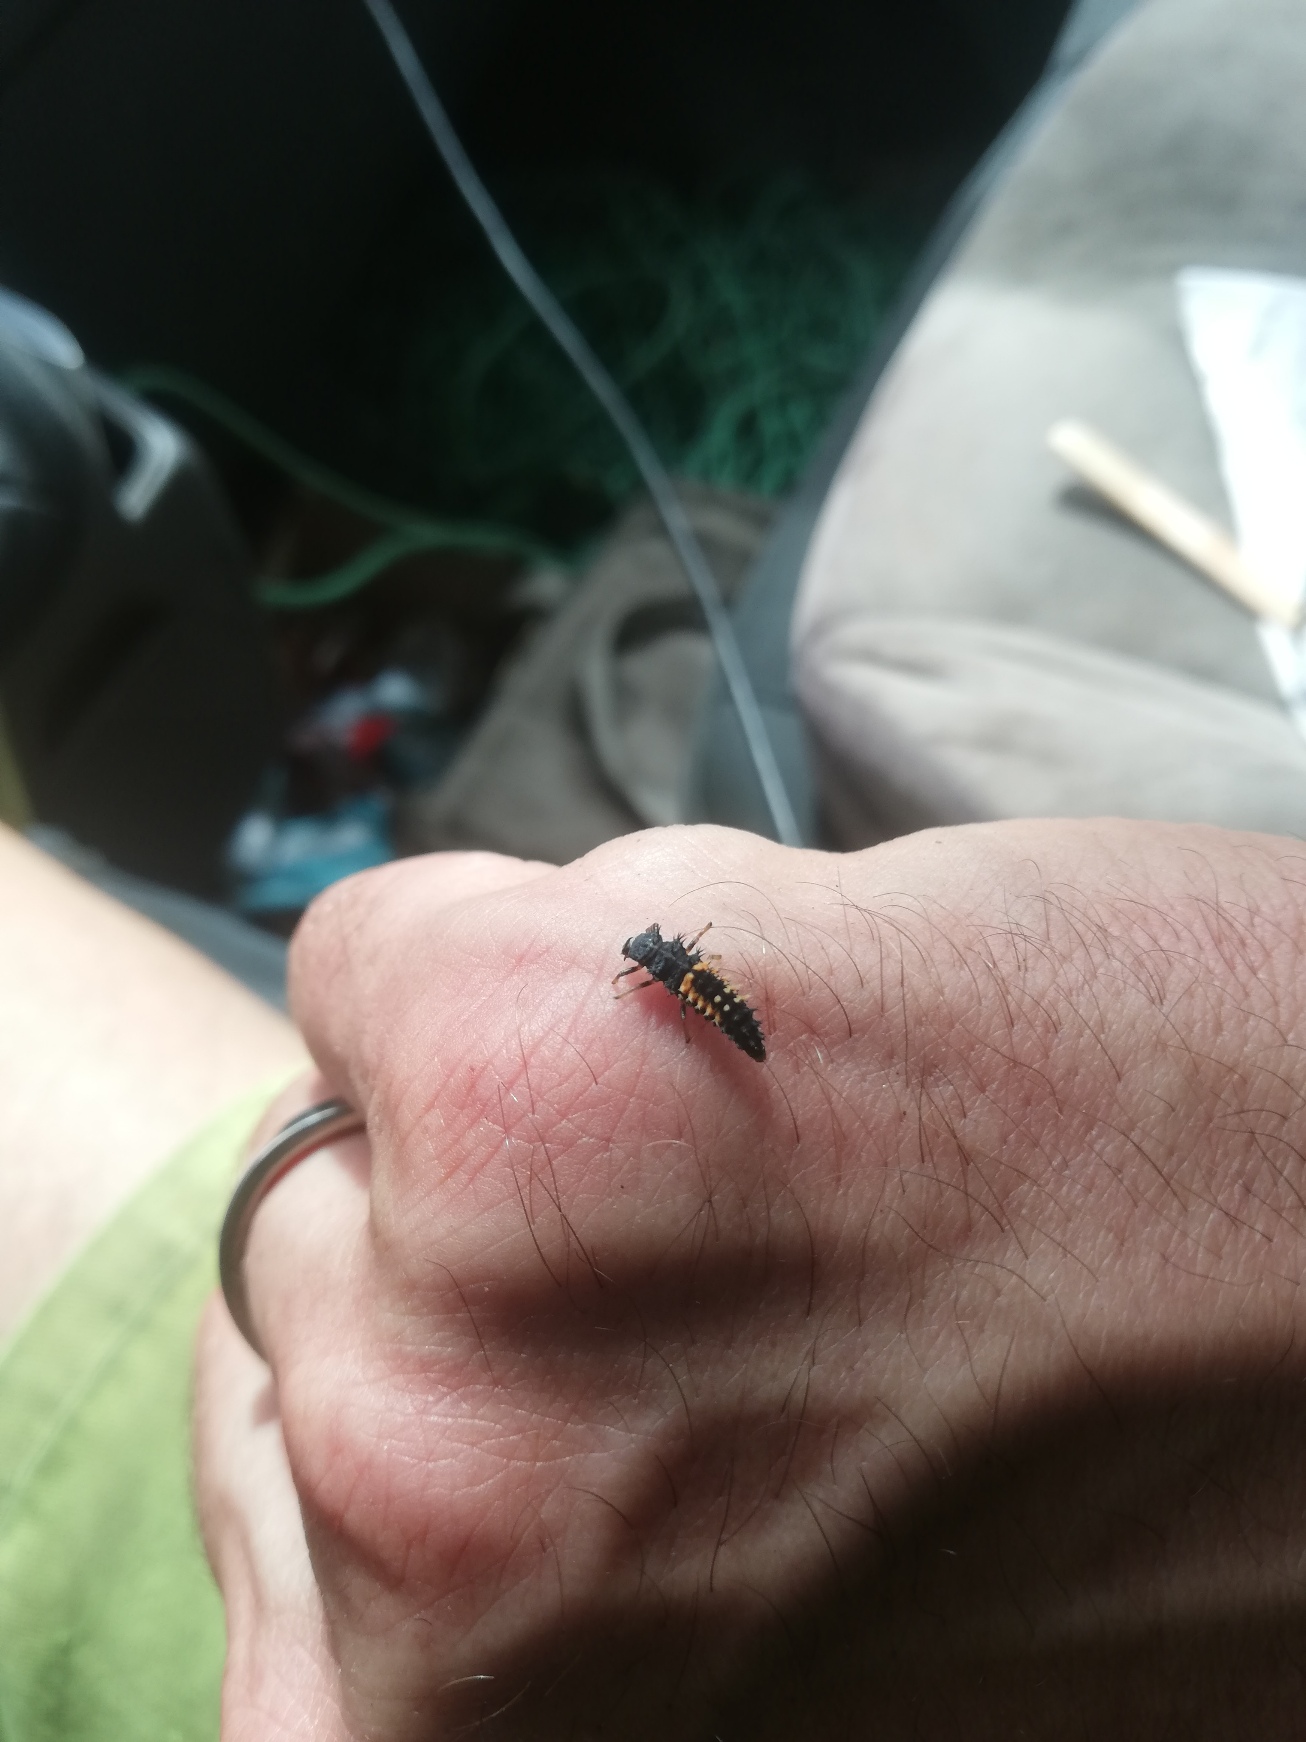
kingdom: Animalia
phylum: Arthropoda
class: Insecta
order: Coleoptera
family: Coccinellidae
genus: Harmonia
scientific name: Harmonia axyridis
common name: Harlekinmariehøne
